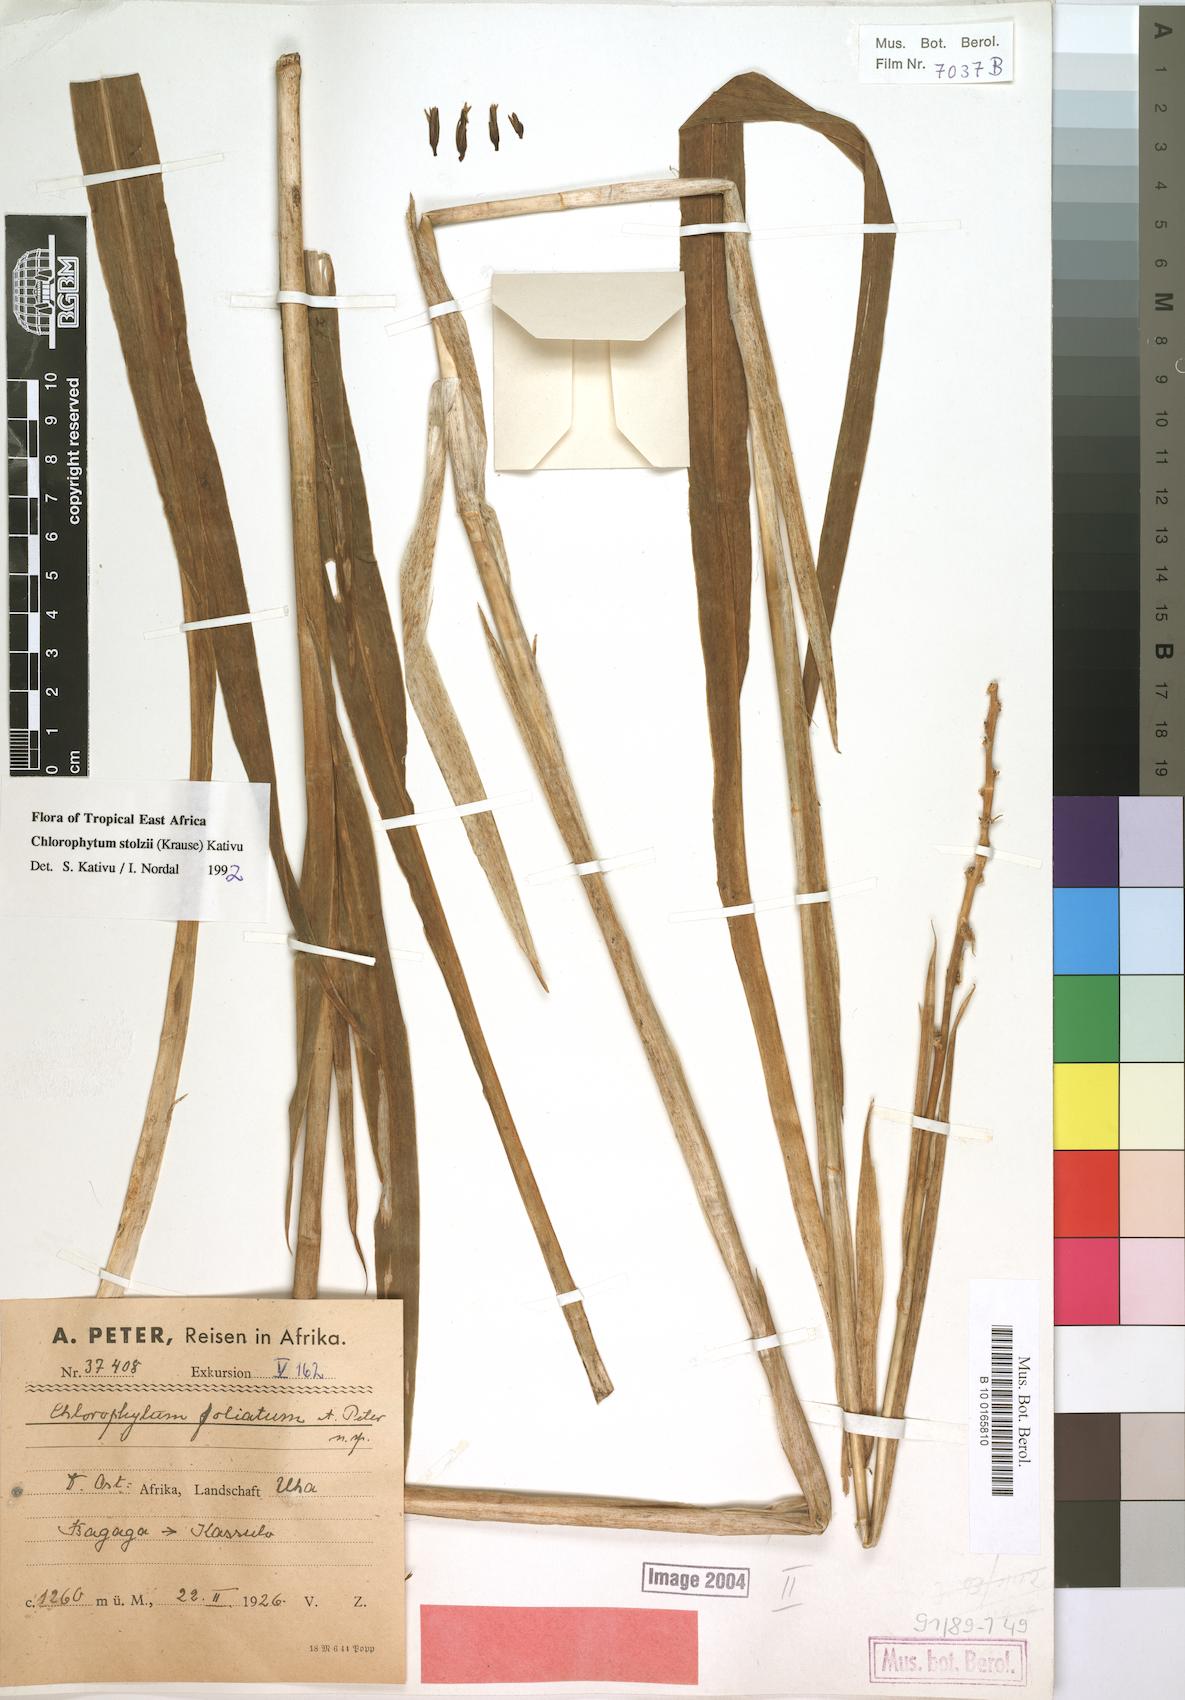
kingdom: Plantae
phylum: Tracheophyta
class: Liliopsida
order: Asparagales
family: Asparagaceae
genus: Chlorophytum
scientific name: Chlorophytum stolzii
